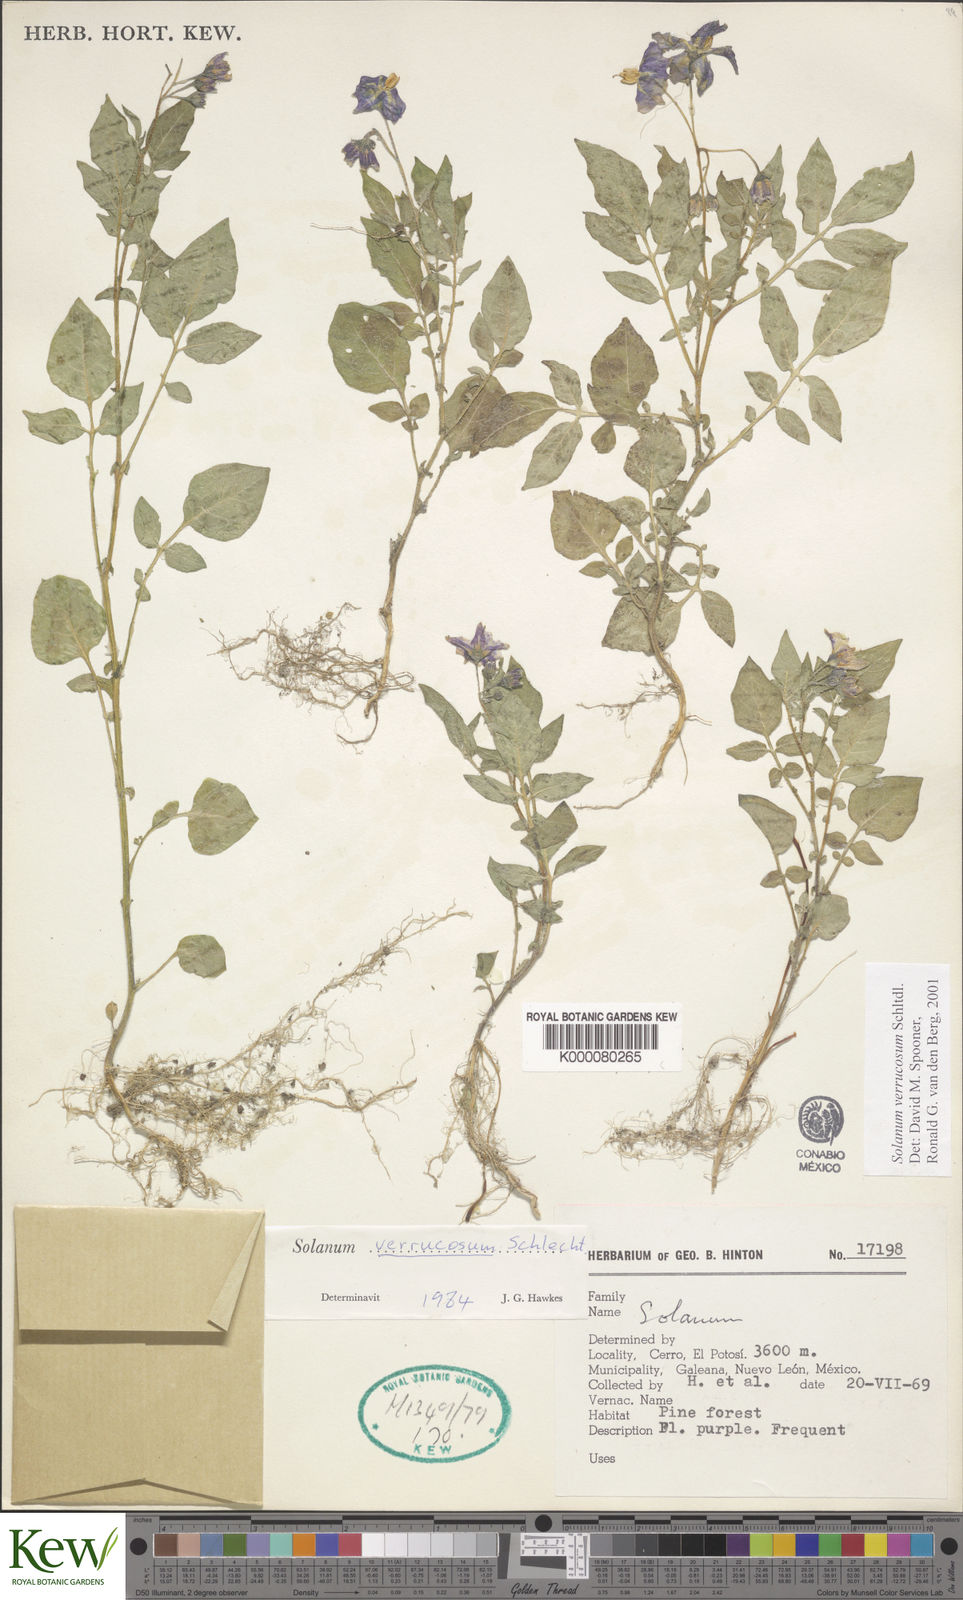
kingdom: Plantae
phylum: Tracheophyta
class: Magnoliopsida
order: Solanales
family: Solanaceae
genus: Solanum
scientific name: Solanum verrucosum
